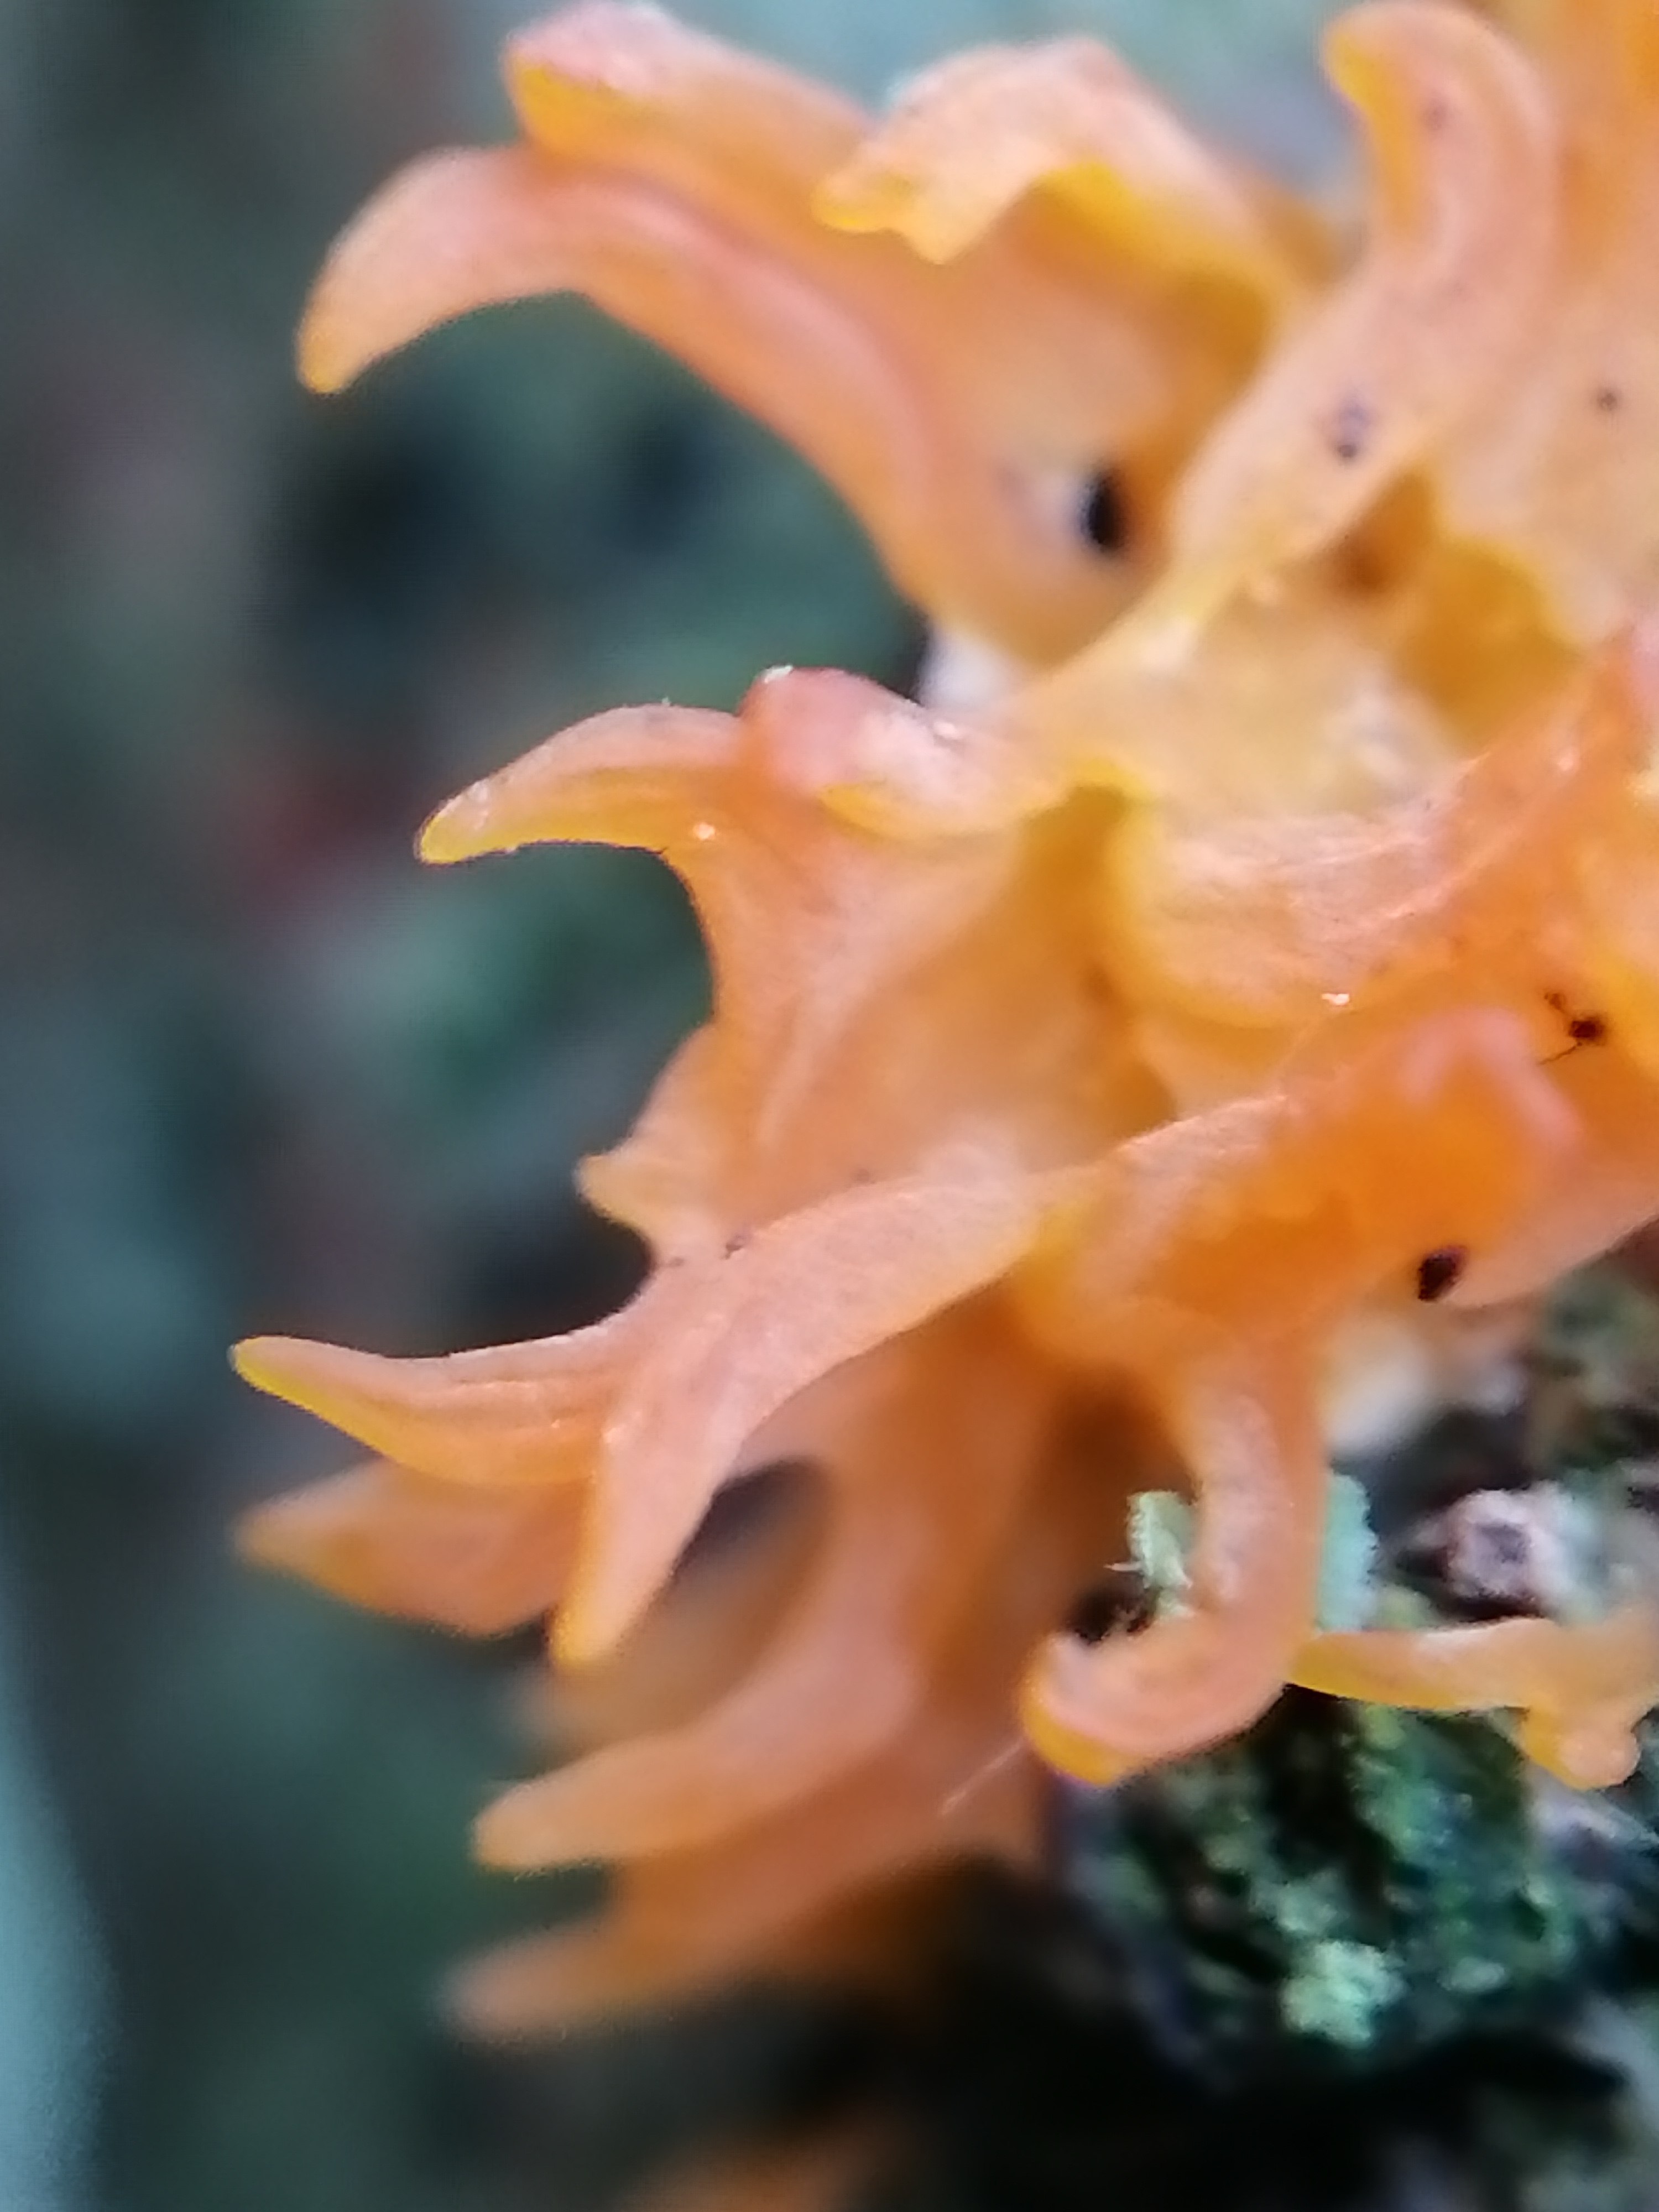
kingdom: Fungi
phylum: Basidiomycota
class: Dacrymycetes
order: Dacrymycetales
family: Dacrymycetaceae
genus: Calocera
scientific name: Calocera
